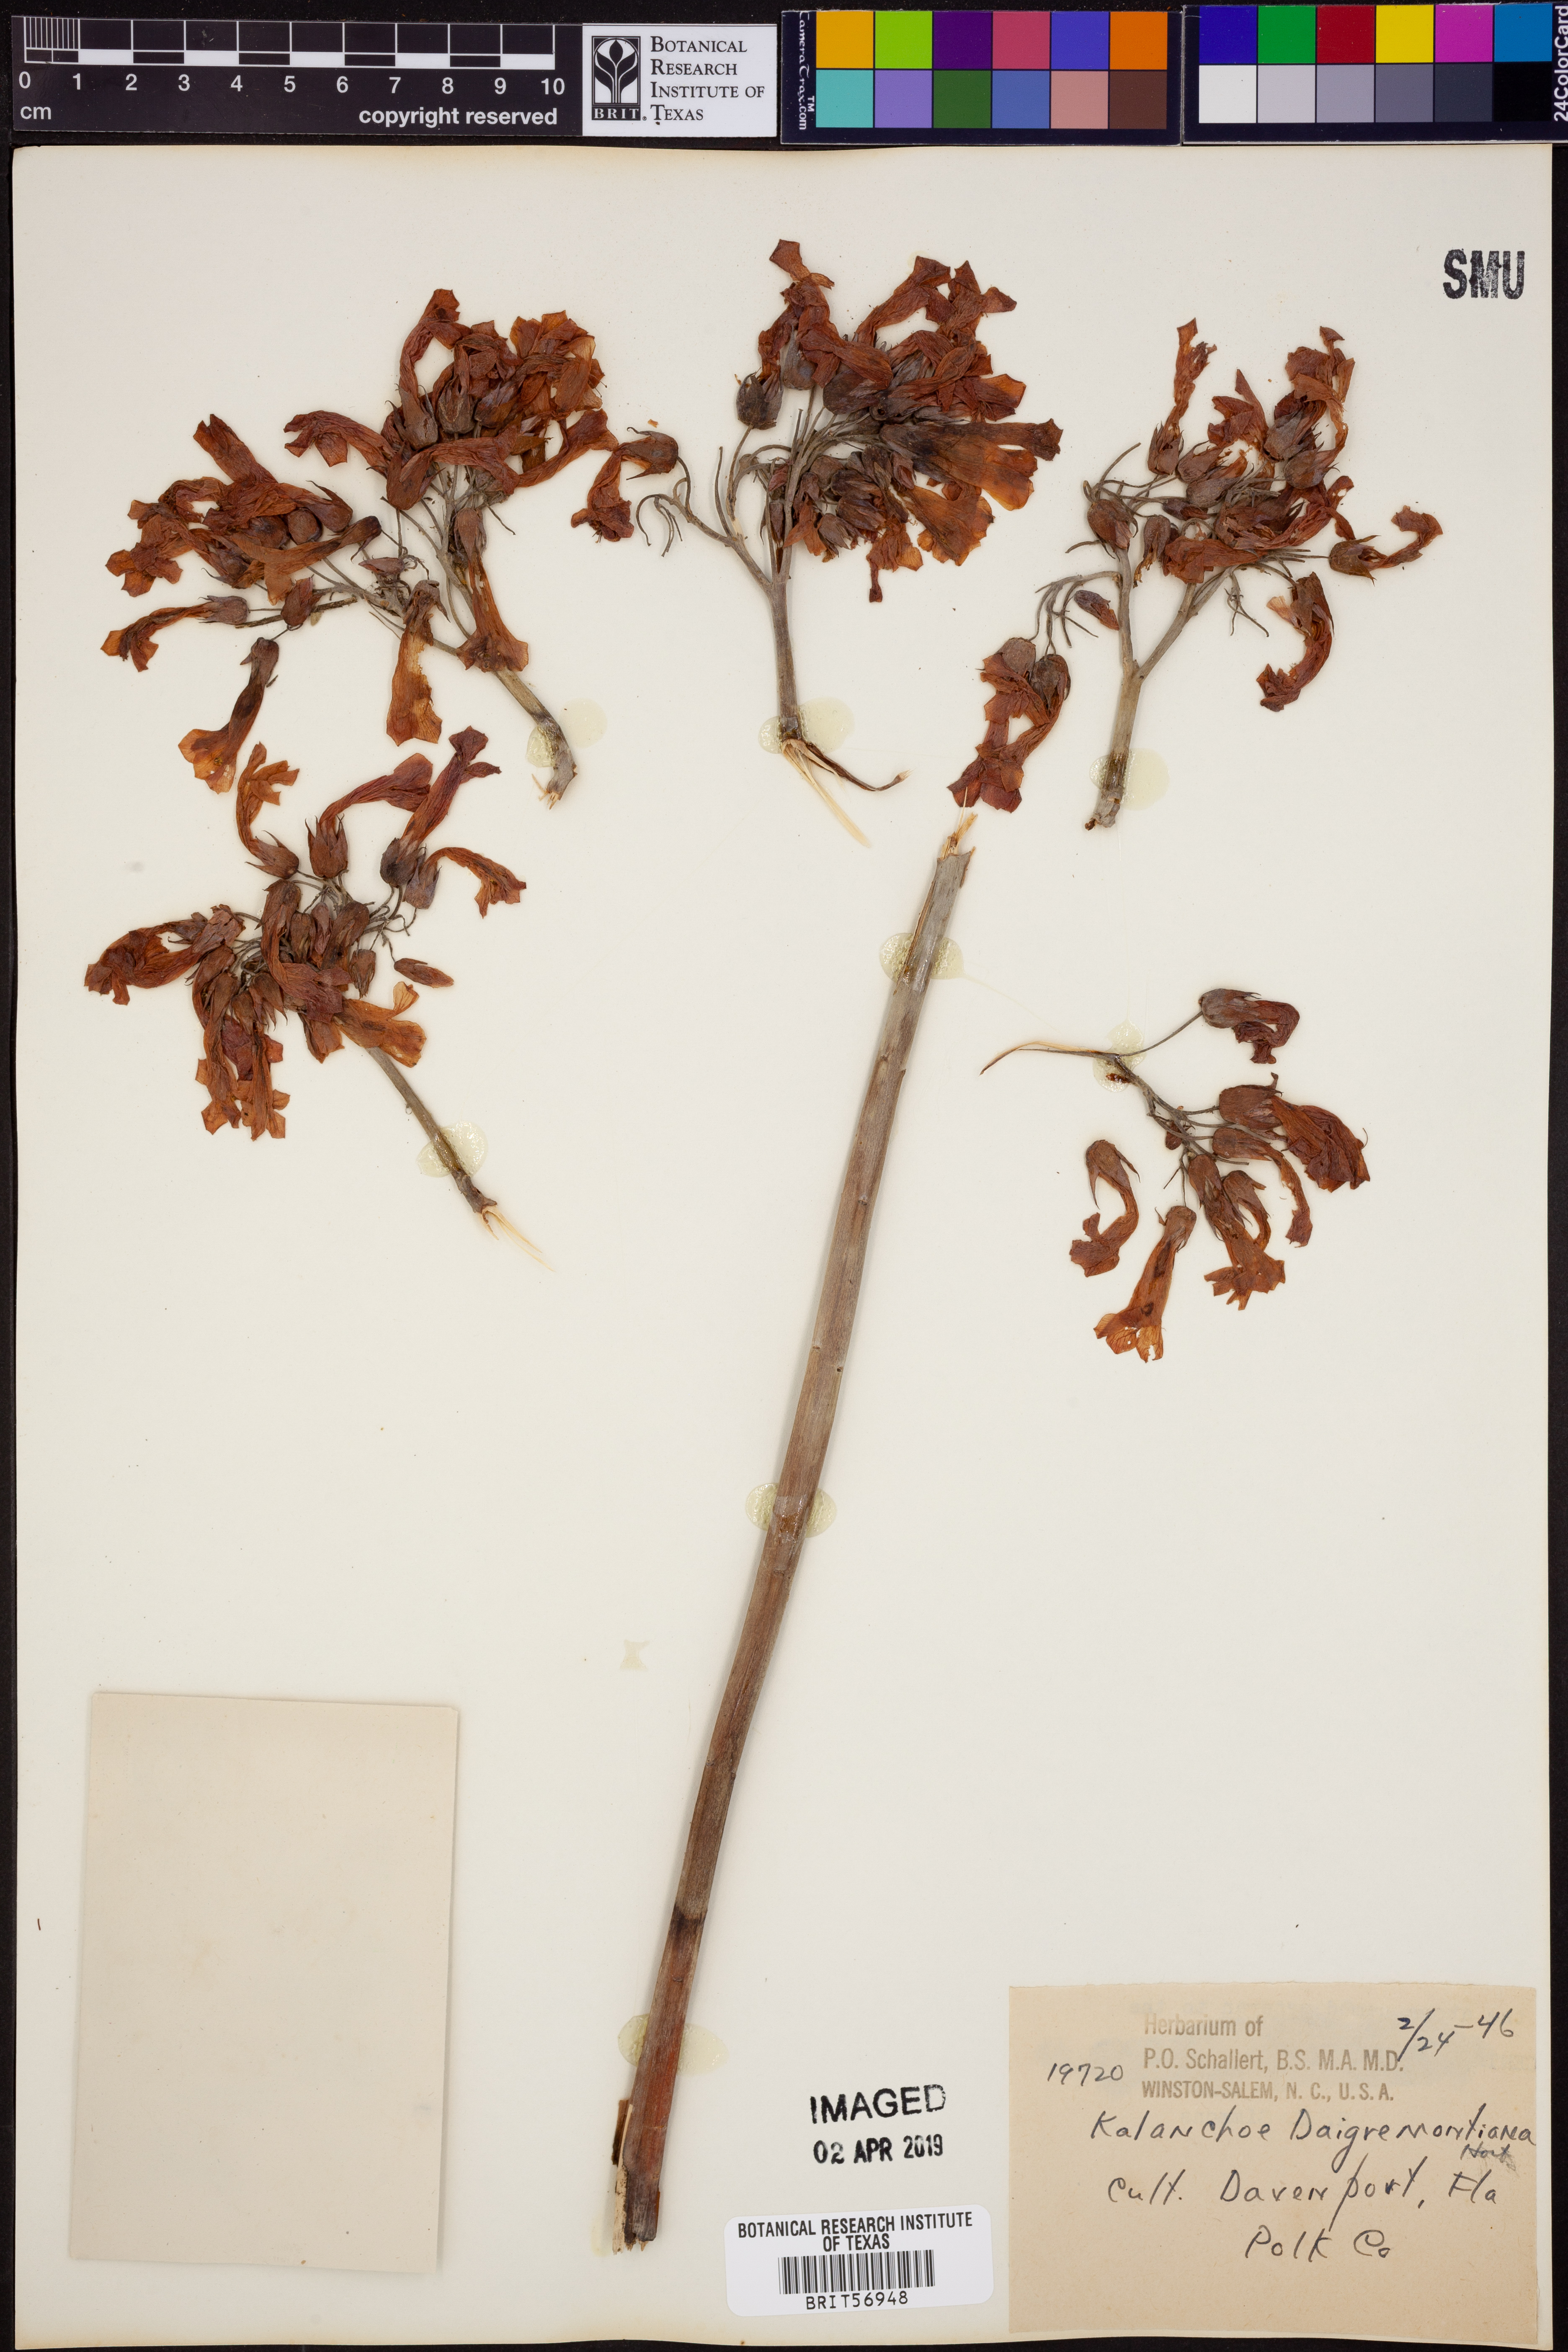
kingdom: Plantae
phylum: Tracheophyta
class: Magnoliopsida
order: Saxifragales
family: Crassulaceae
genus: Kalanchoe
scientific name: Kalanchoe daigremontiana
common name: Devil's backbone
